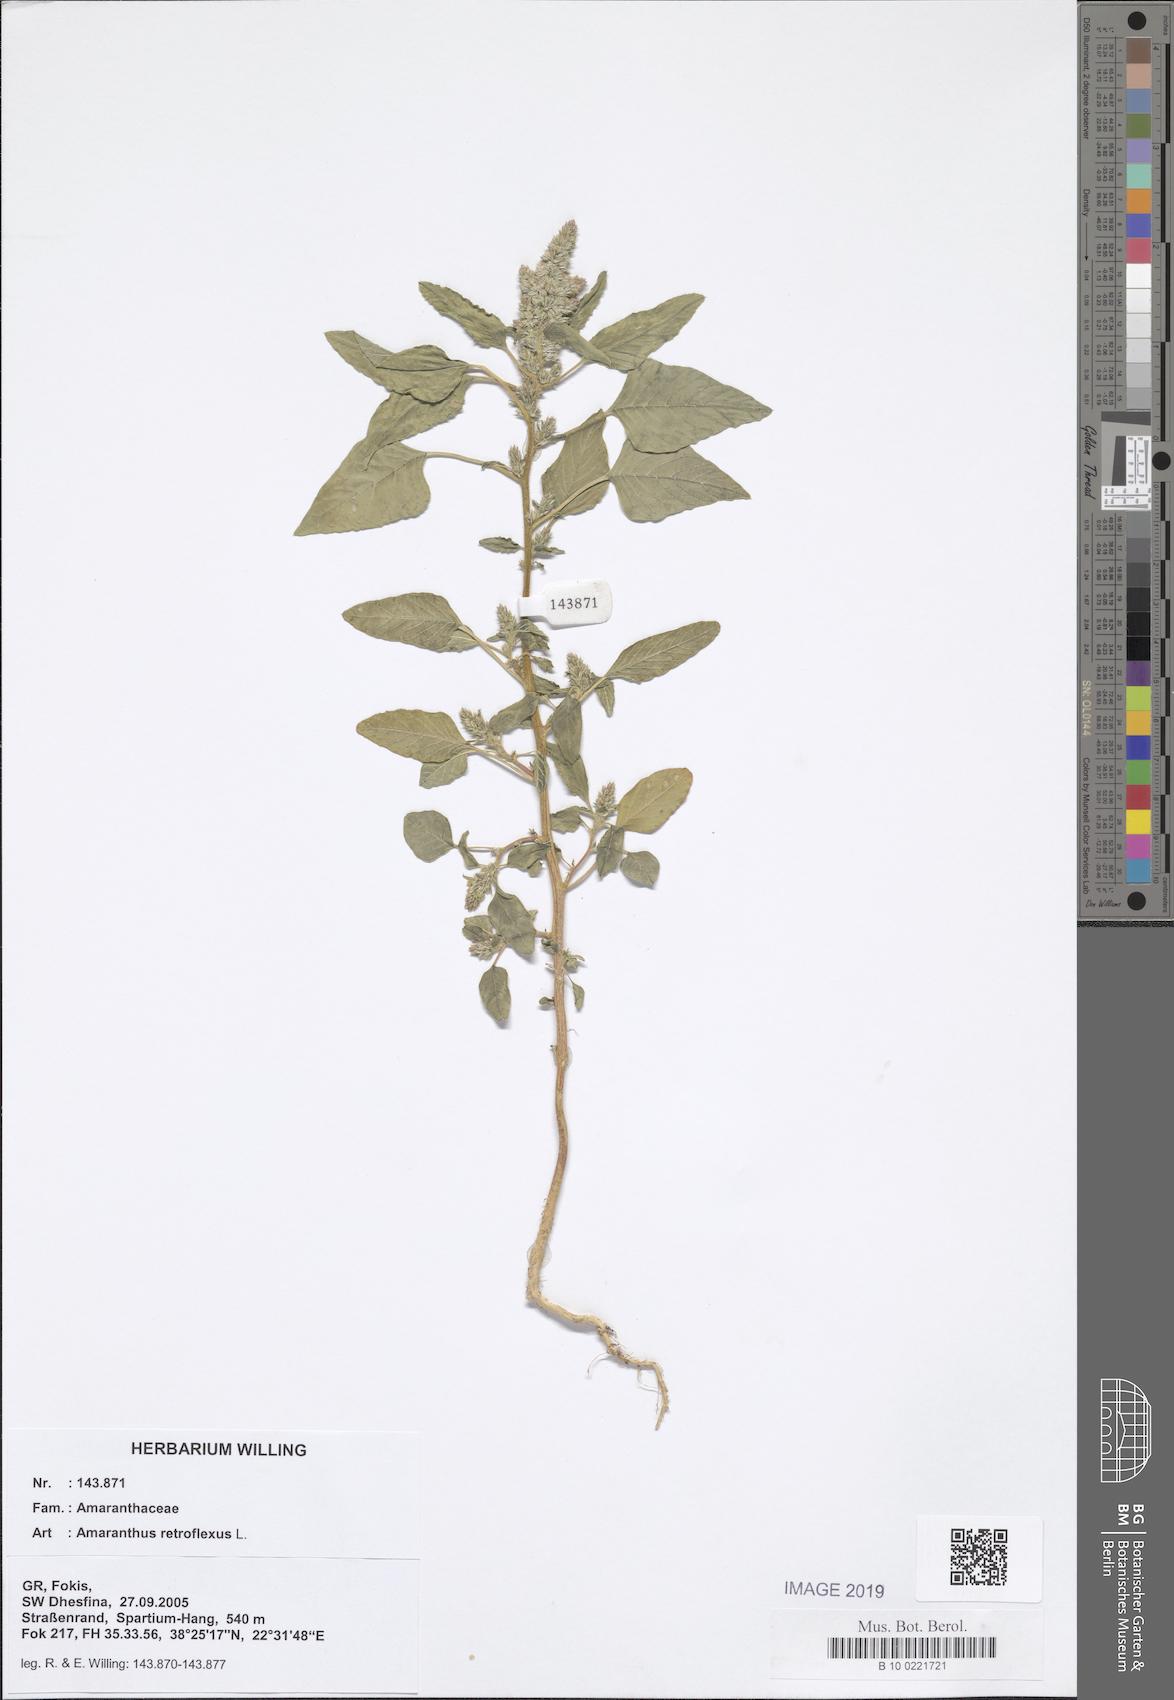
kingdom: Plantae
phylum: Tracheophyta
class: Magnoliopsida
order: Caryophyllales
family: Amaranthaceae
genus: Amaranthus
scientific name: Amaranthus retroflexus
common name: Redroot amaranth
